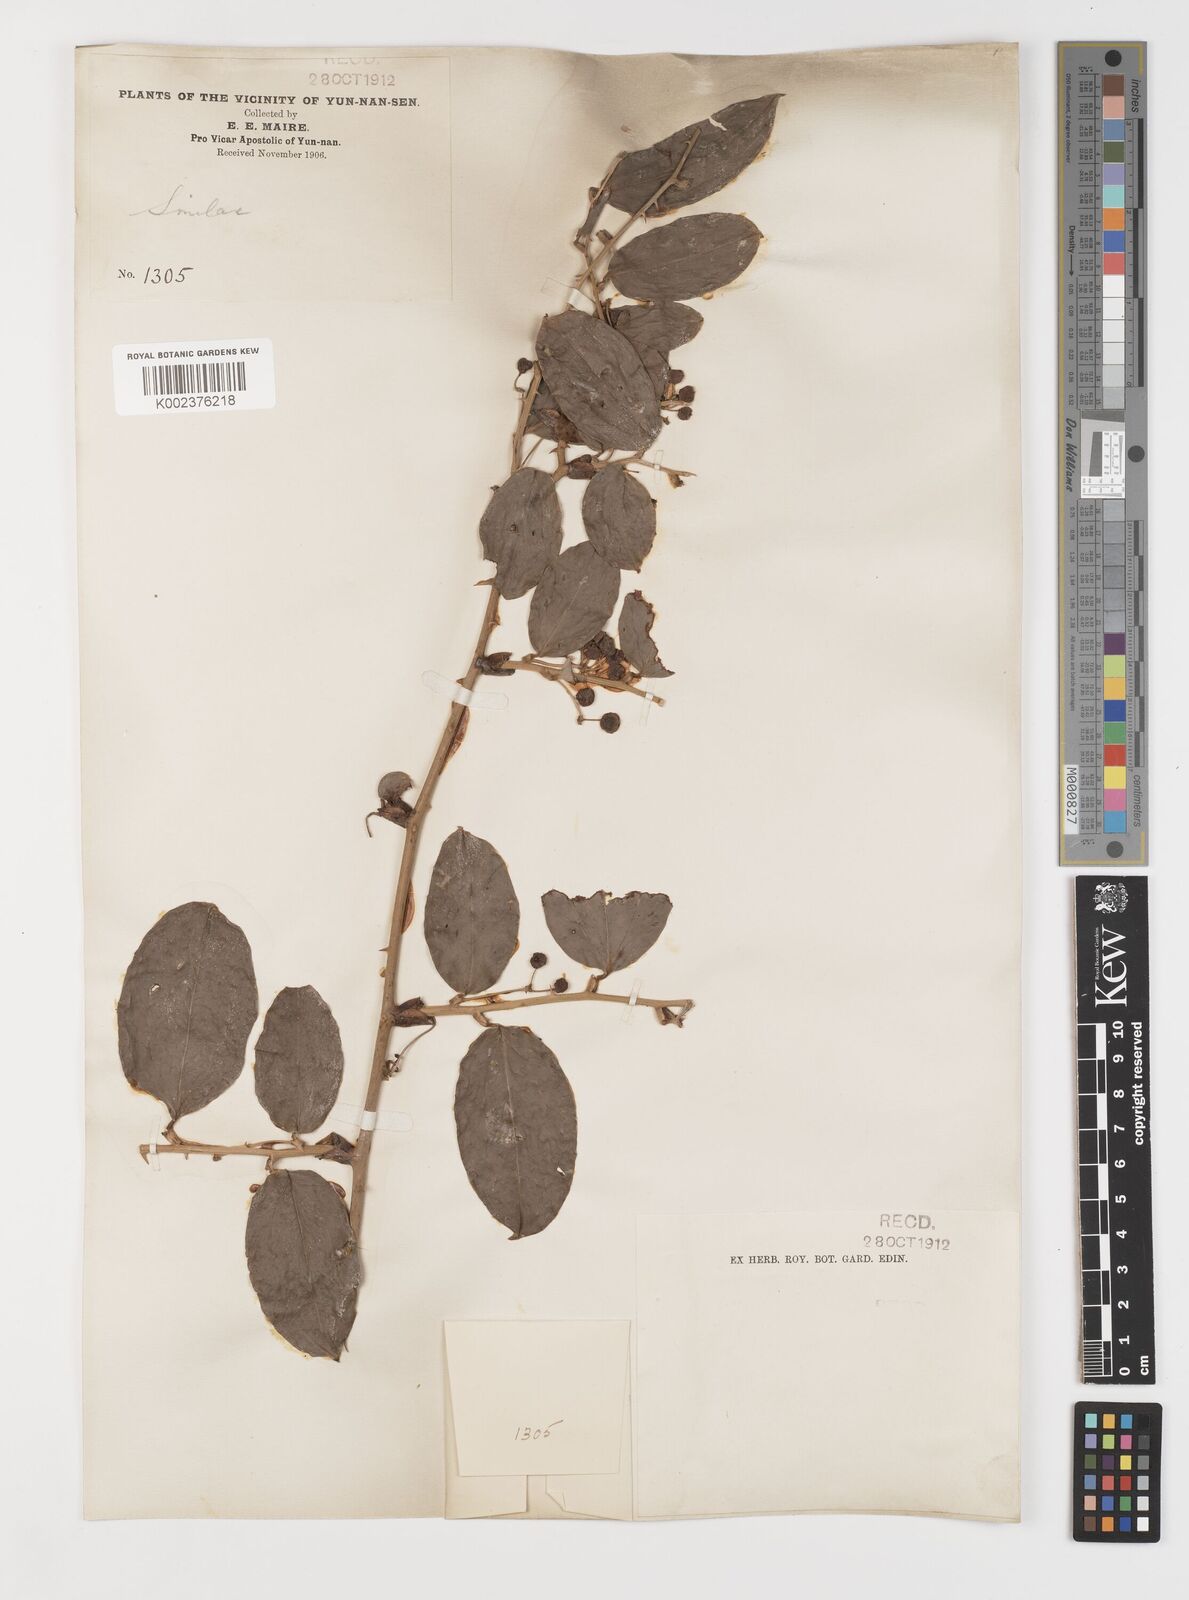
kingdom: Plantae
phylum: Tracheophyta
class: Liliopsida
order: Liliales
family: Smilacaceae
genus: Smilax
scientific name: Smilax ferox
